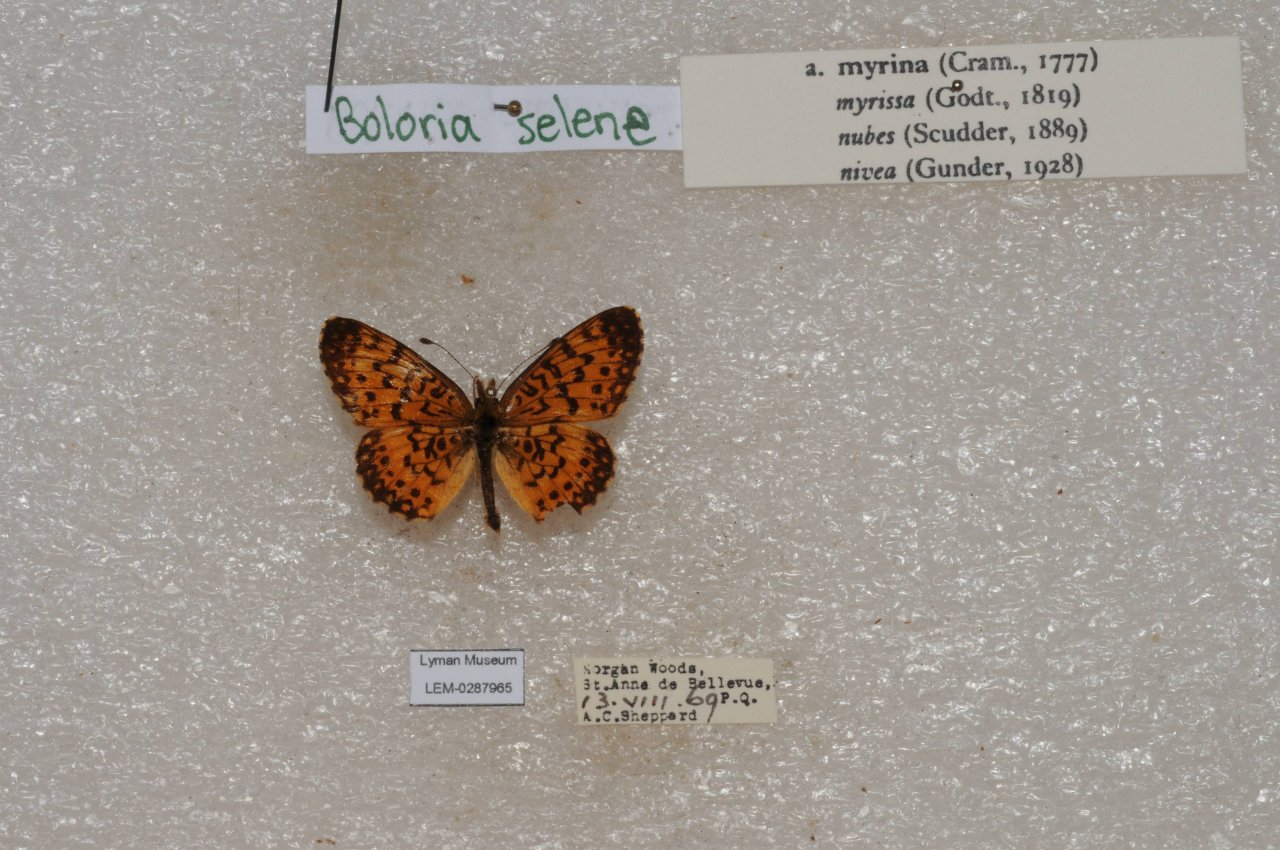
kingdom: Animalia
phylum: Arthropoda
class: Insecta
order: Lepidoptera
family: Nymphalidae
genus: Boloria
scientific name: Boloria selene
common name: Silver-bordered Fritillary
